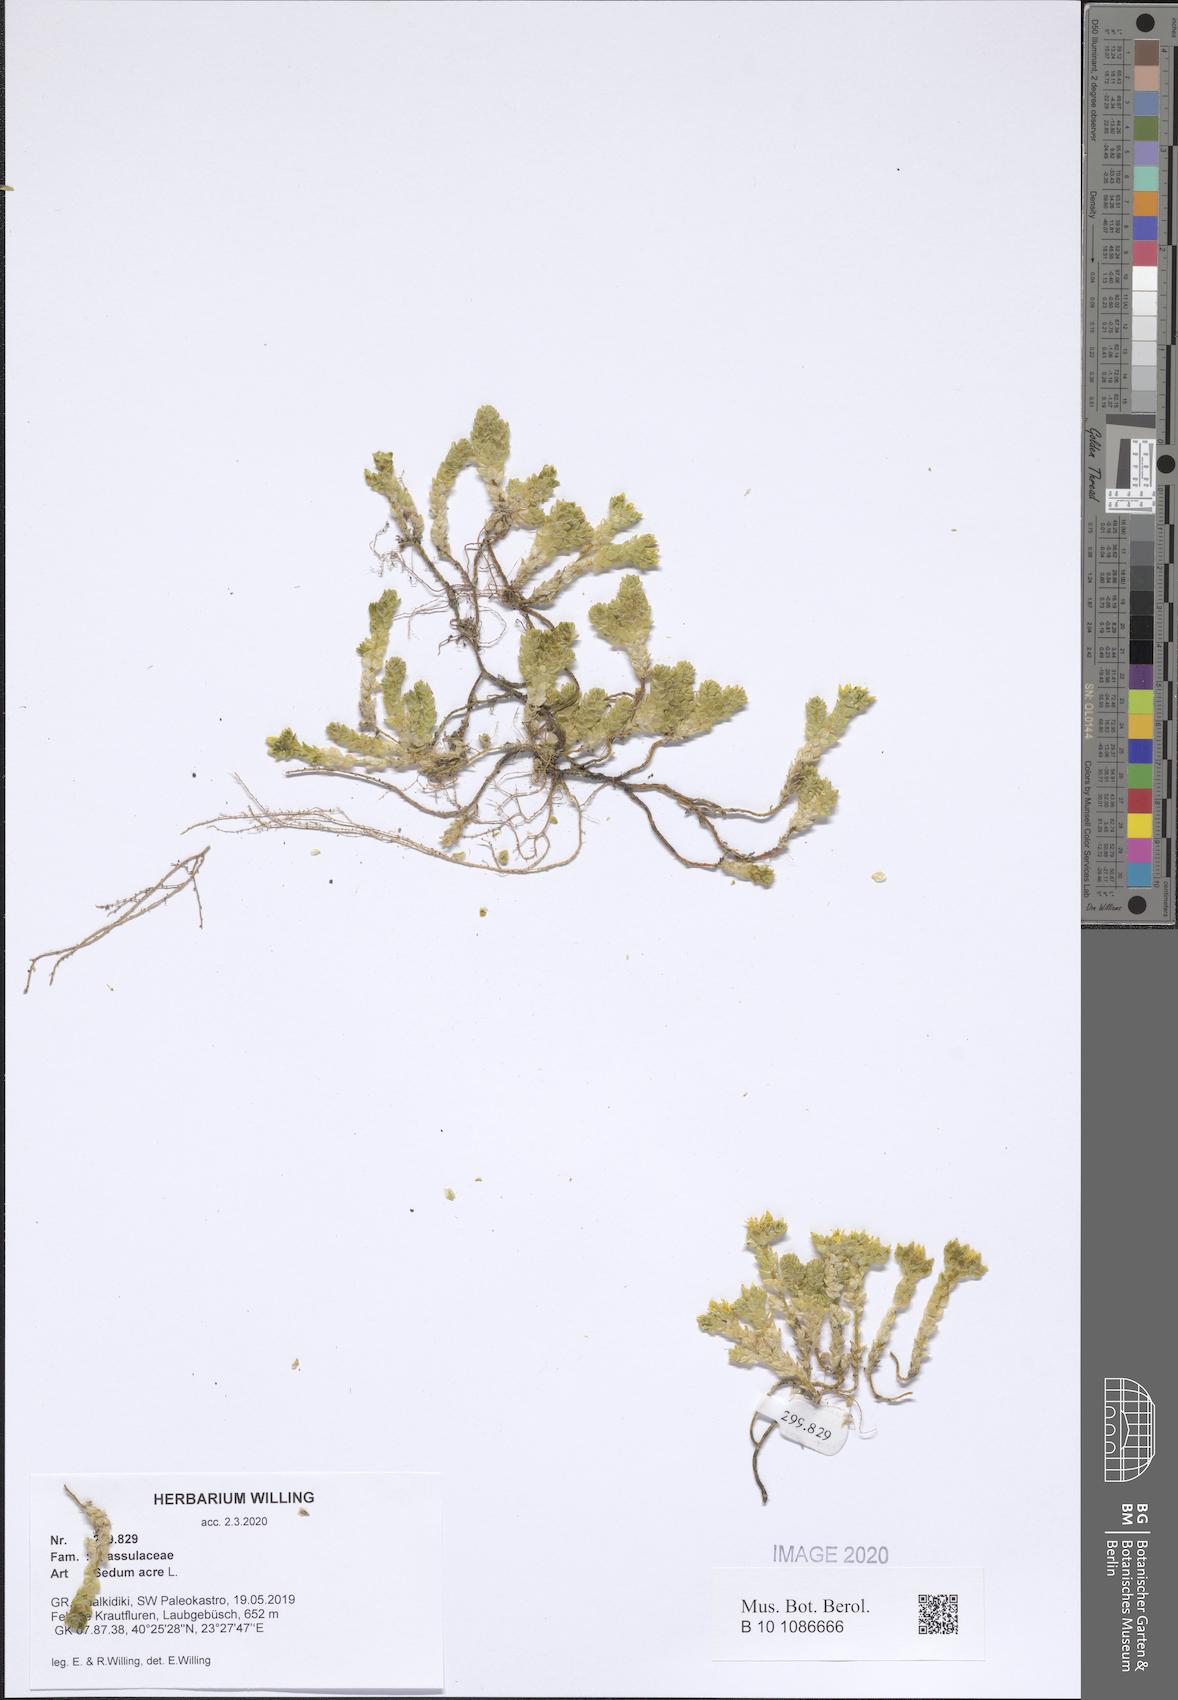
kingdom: Plantae
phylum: Tracheophyta
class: Magnoliopsida
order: Saxifragales
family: Crassulaceae
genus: Sedum
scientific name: Sedum acre
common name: Biting stonecrop
